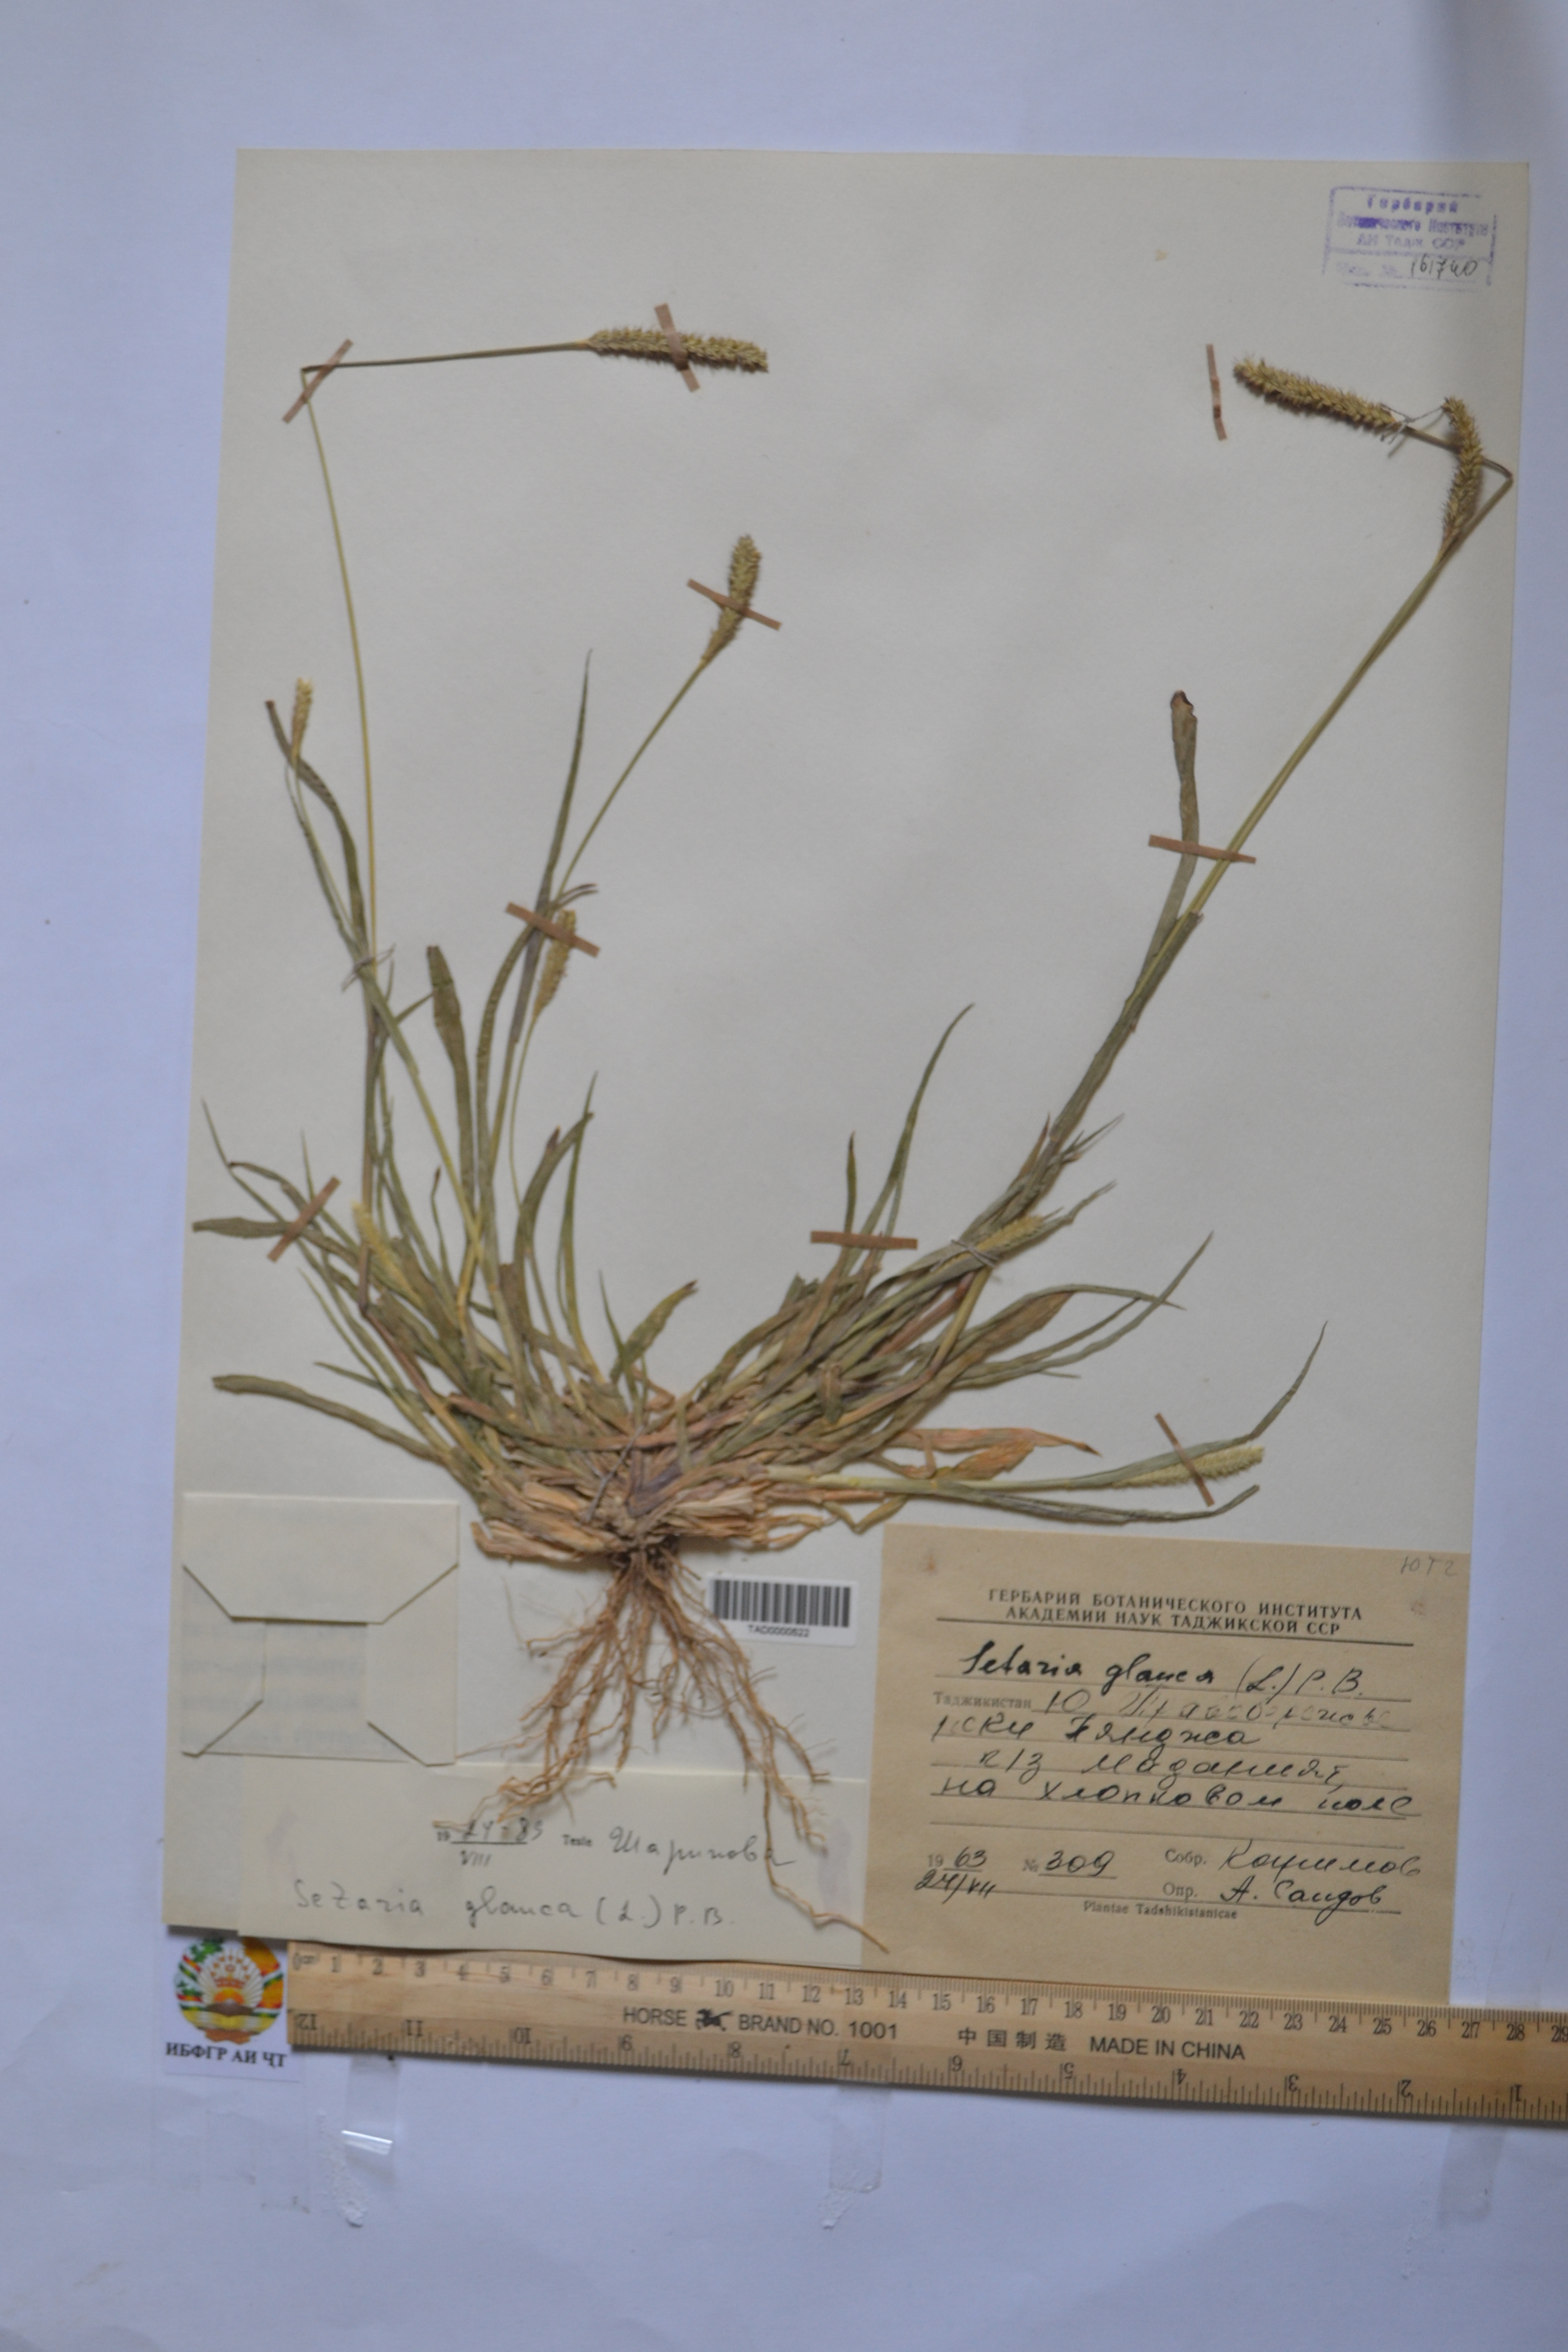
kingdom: Plantae
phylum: Tracheophyta
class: Liliopsida
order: Poales
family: Poaceae
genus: Cenchrus
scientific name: Cenchrus americanus
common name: Pearl millet
